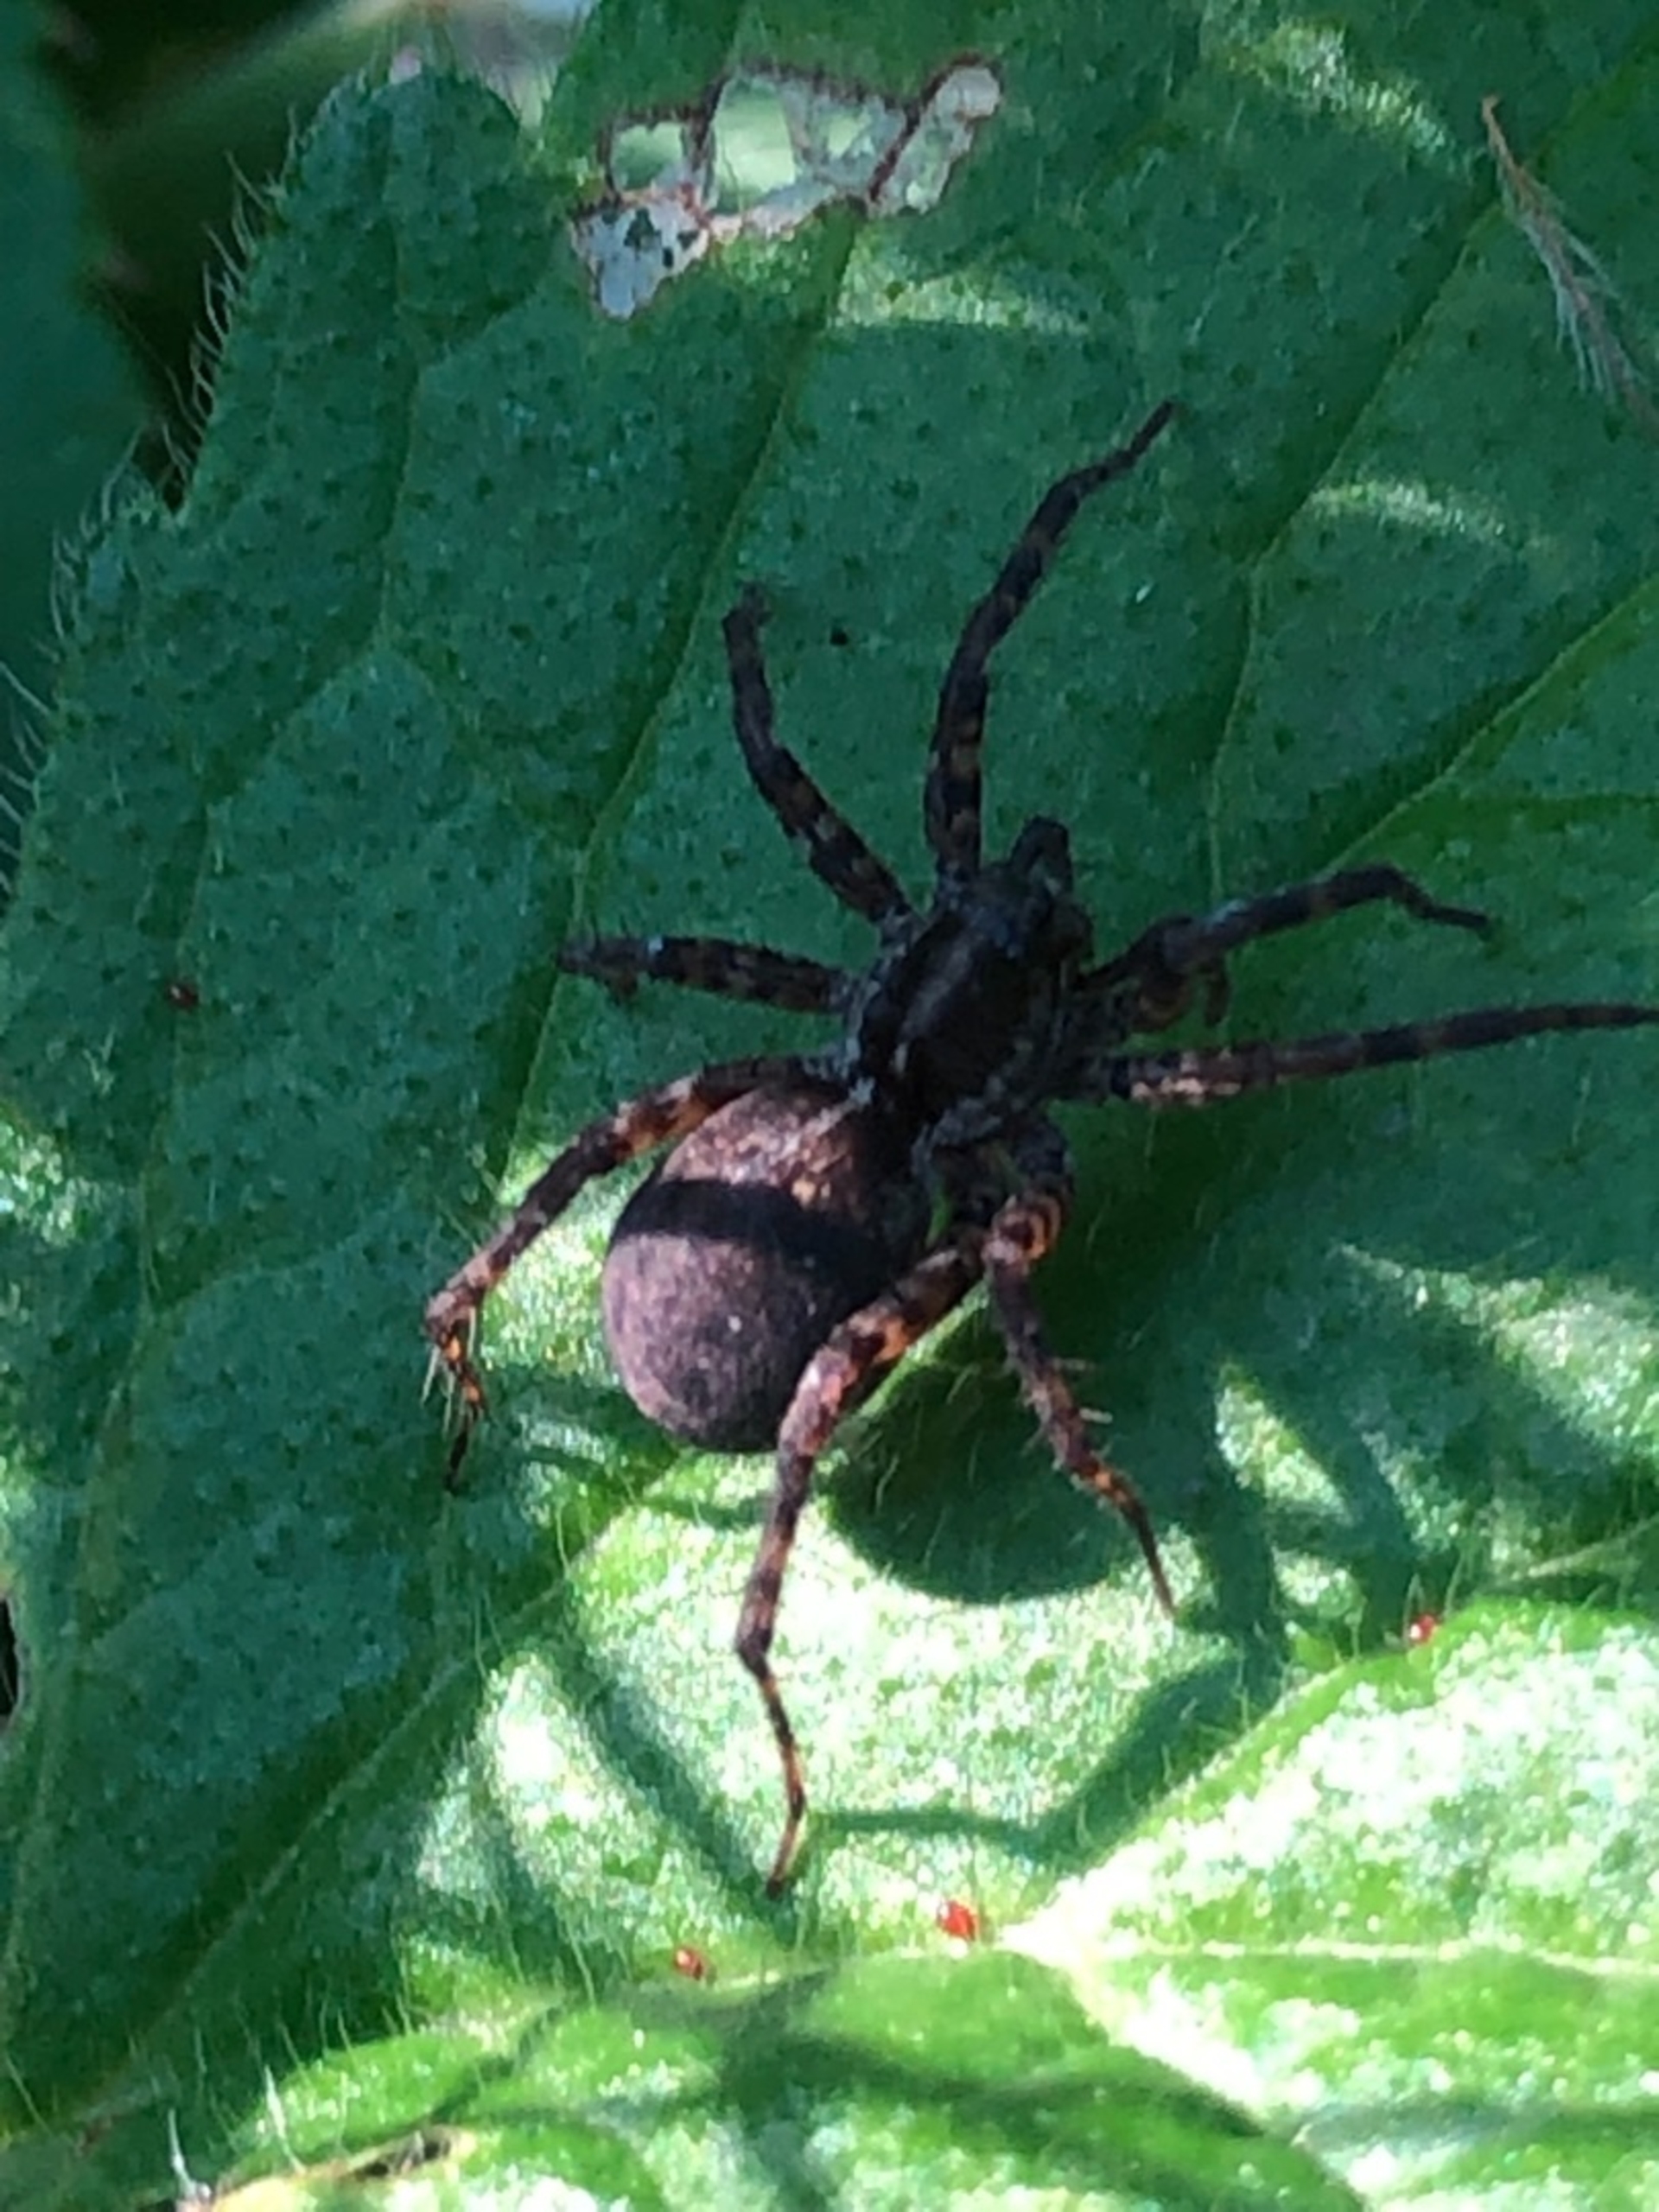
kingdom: Animalia
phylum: Arthropoda
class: Arachnida
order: Araneae
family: Lycosidae
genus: Pardosa
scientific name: Pardosa
